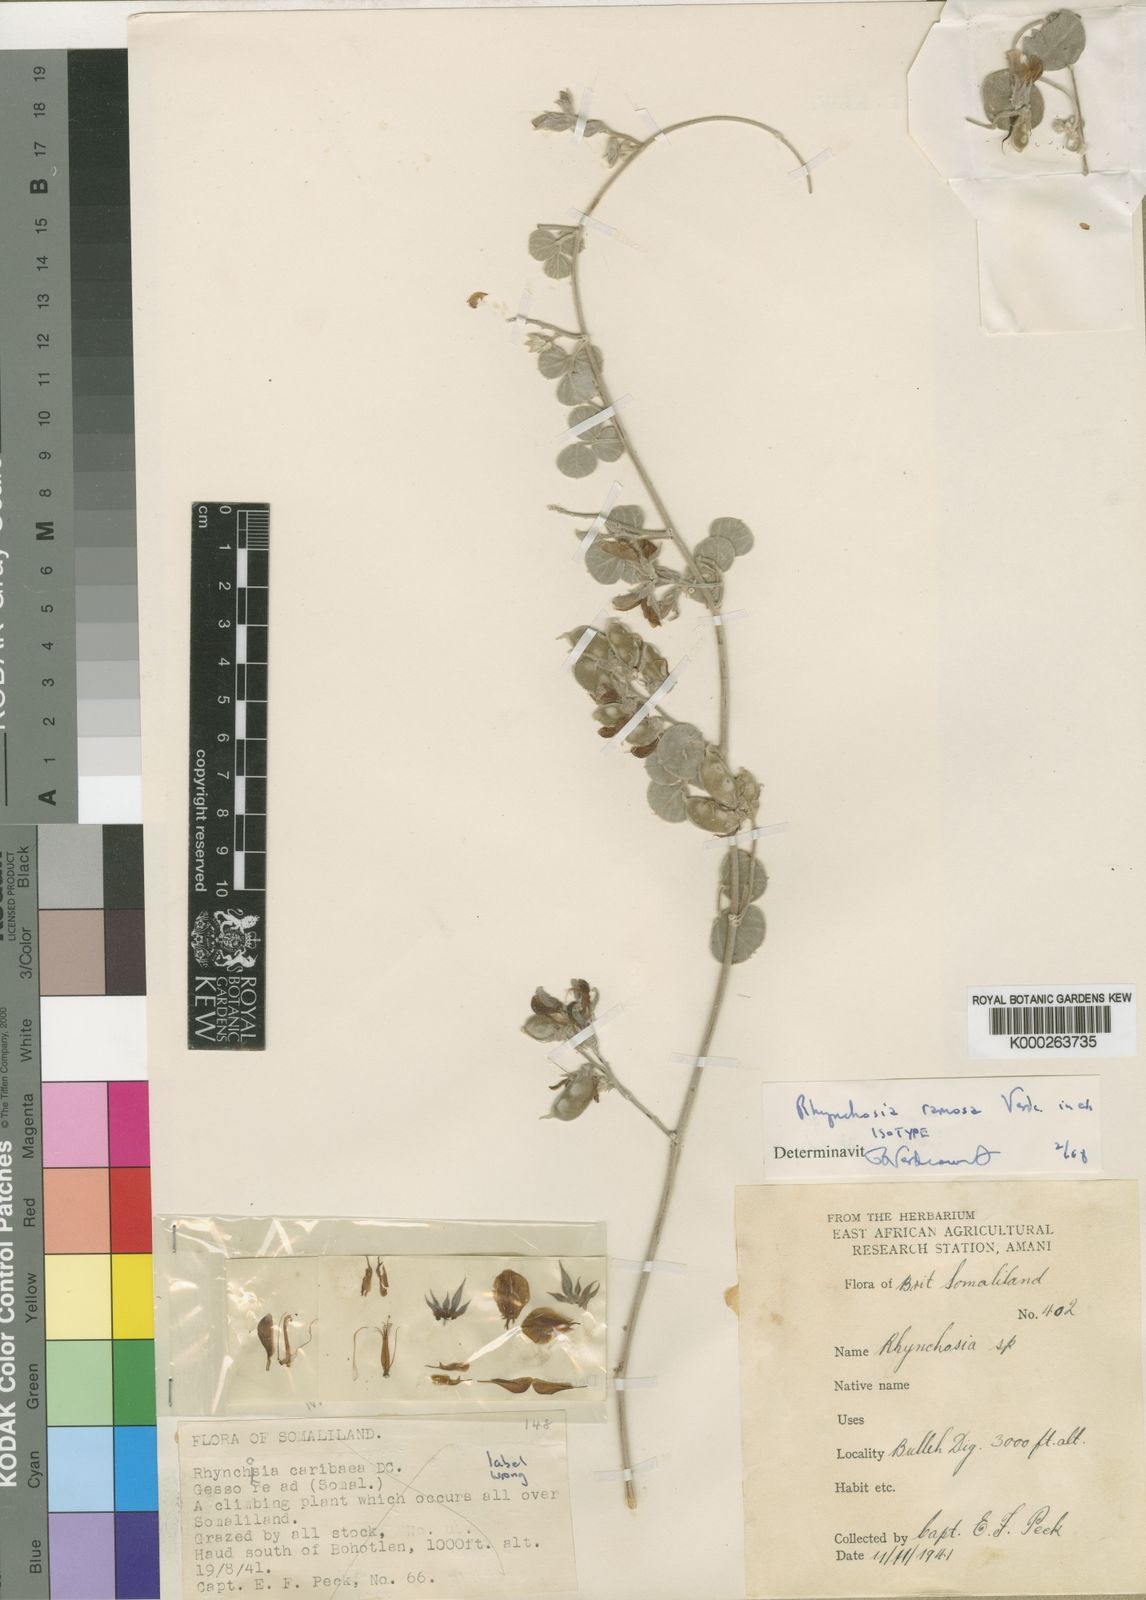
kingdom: Plantae
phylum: Tracheophyta
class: Magnoliopsida
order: Fabales
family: Fabaceae
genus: Rhynchosia
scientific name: Rhynchosia ramosa
